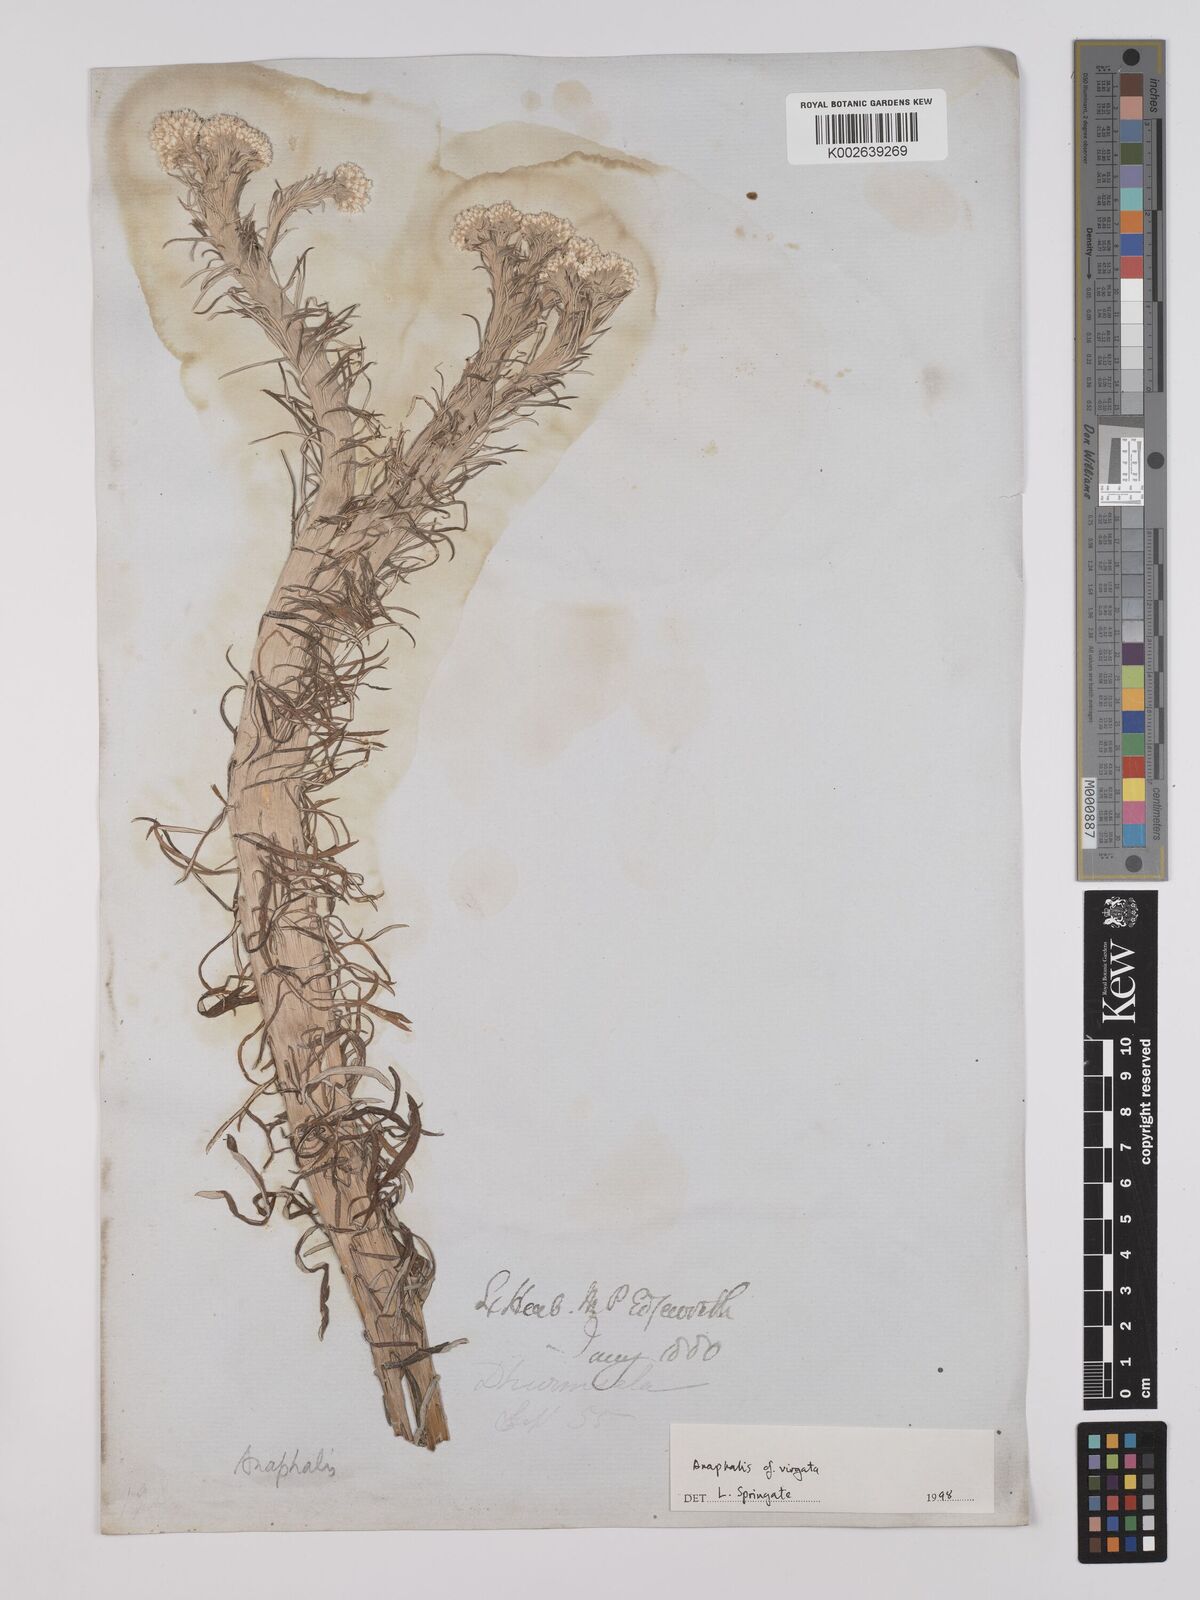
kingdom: Plantae
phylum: Tracheophyta
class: Magnoliopsida
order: Asterales
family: Asteraceae
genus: Anaphalis
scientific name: Anaphalis virgata
